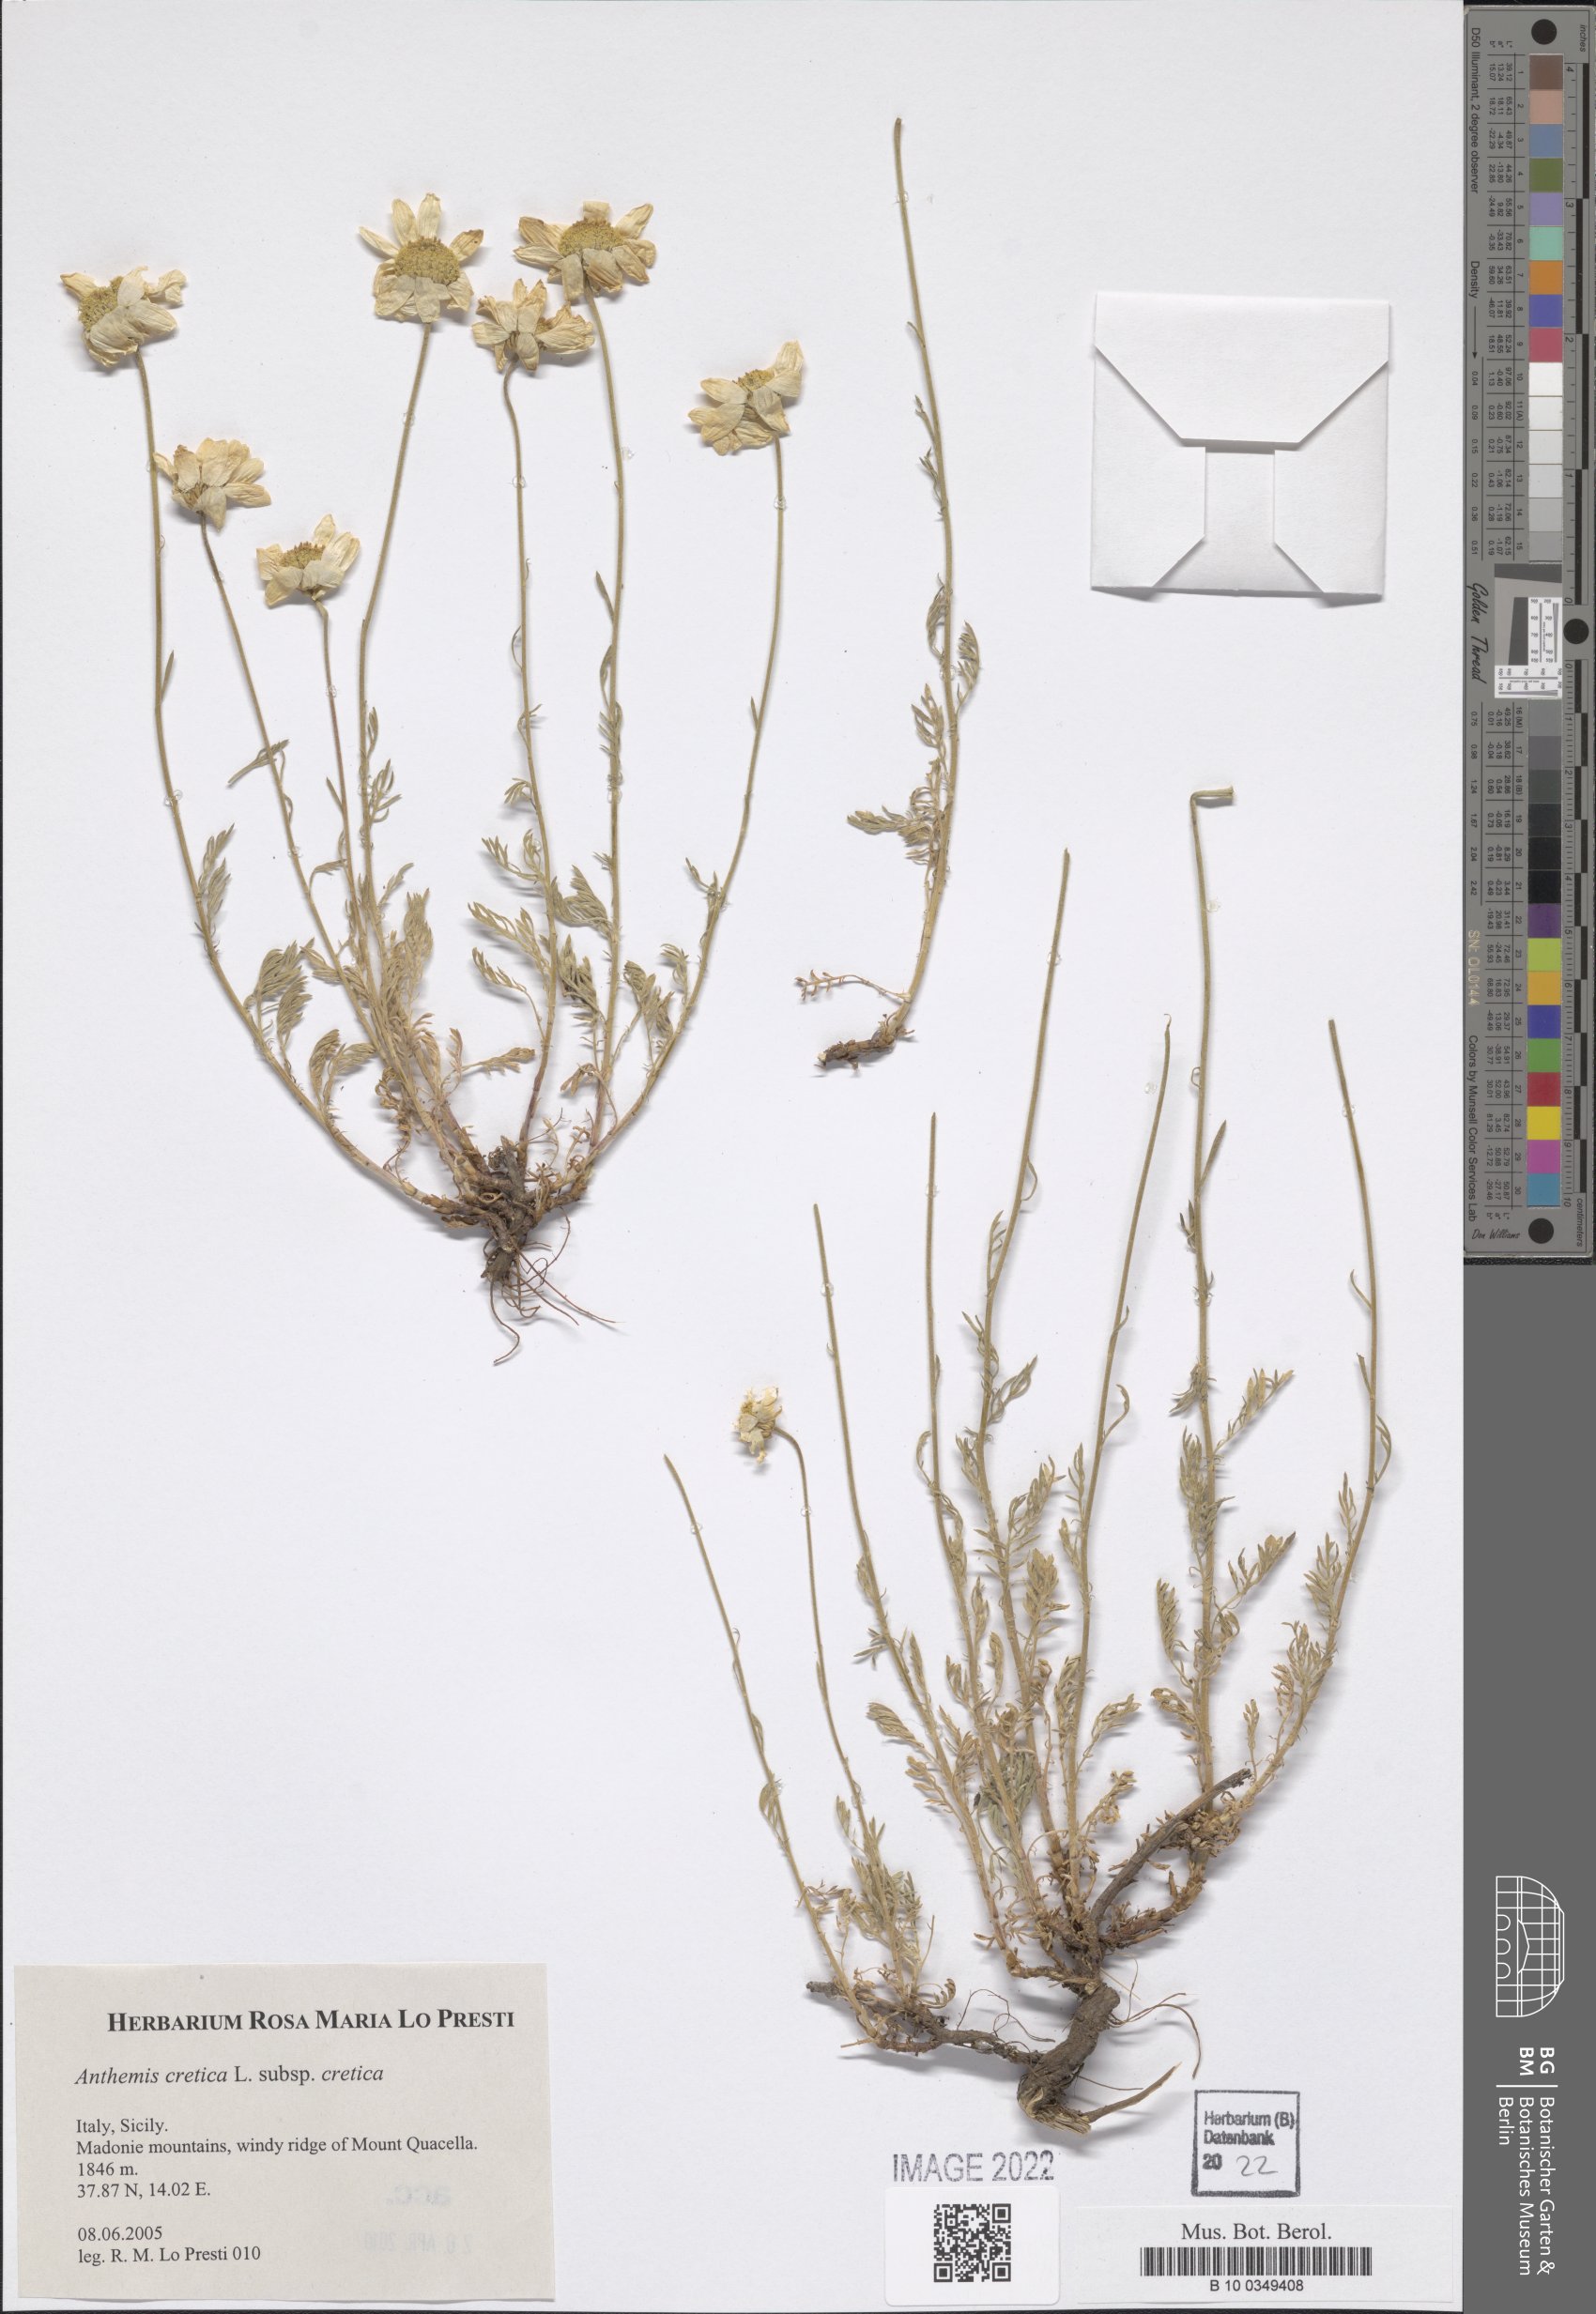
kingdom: Plantae
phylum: Tracheophyta
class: Magnoliopsida
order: Asterales
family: Asteraceae
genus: Anthemis
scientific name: Anthemis cretica
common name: Mountain dog-daisy
